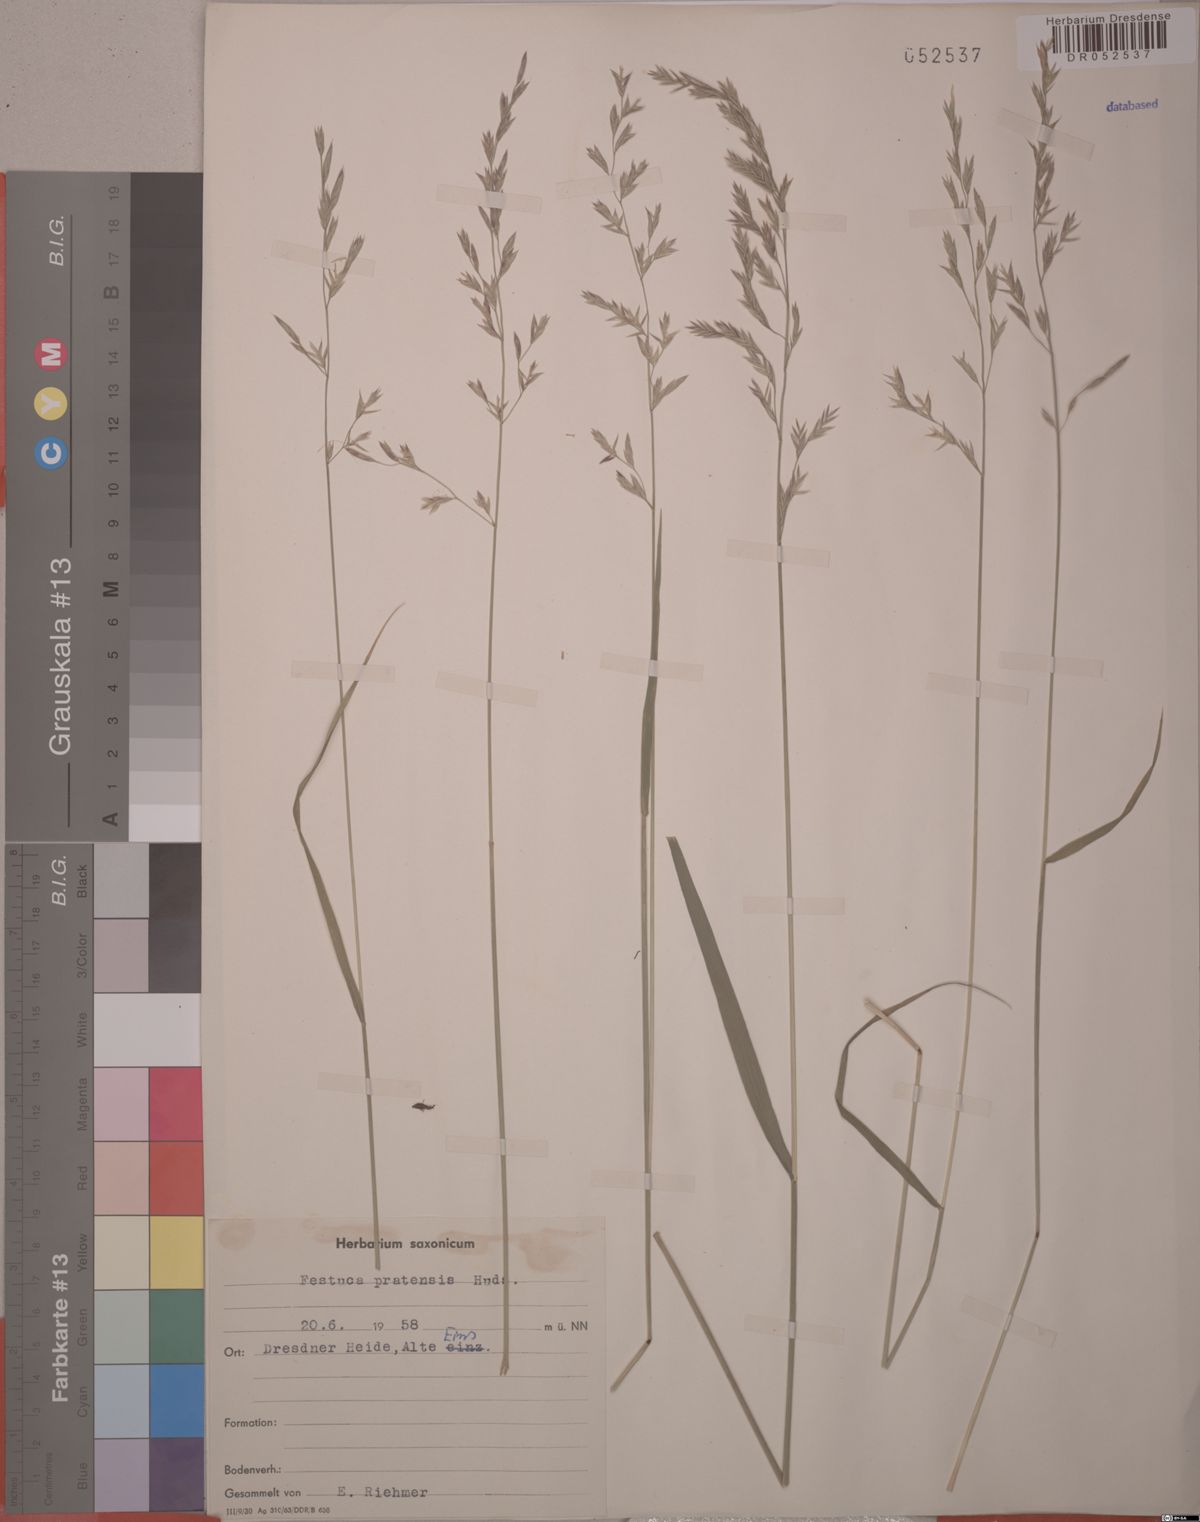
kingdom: Plantae
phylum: Tracheophyta
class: Liliopsida
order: Poales
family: Poaceae
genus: Lolium
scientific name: Lolium pratense
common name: Dover grass
